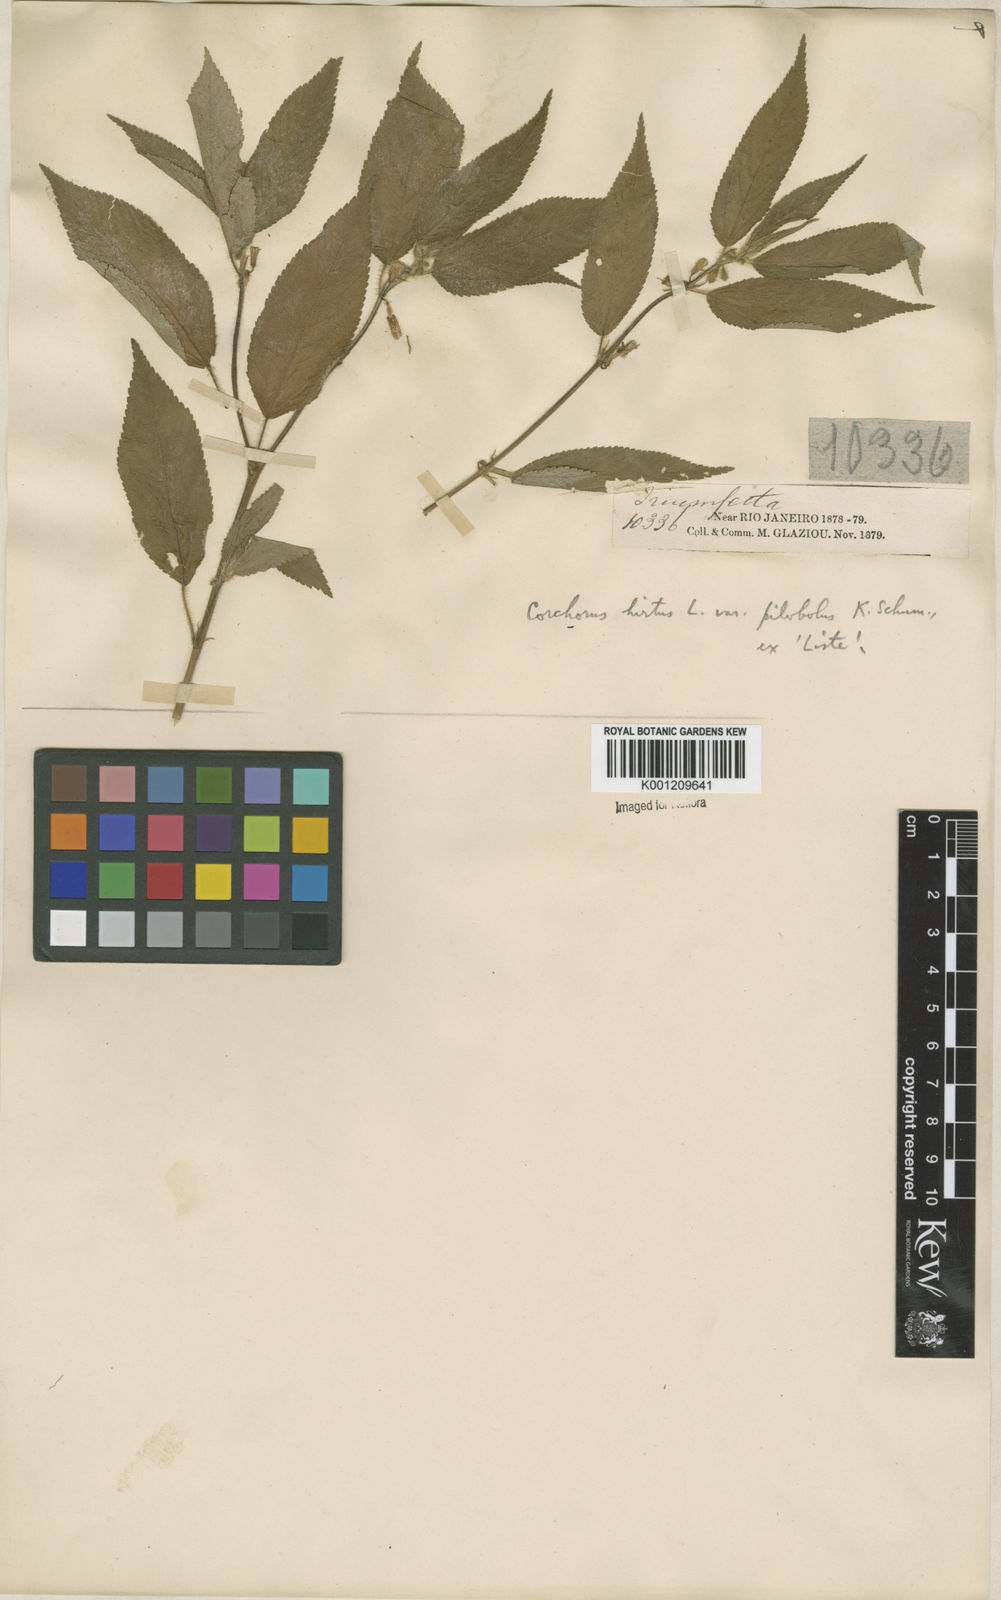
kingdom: Plantae
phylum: Tracheophyta
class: Magnoliopsida
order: Malvales
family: Malvaceae
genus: Corchorus
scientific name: Corchorus hirtus
